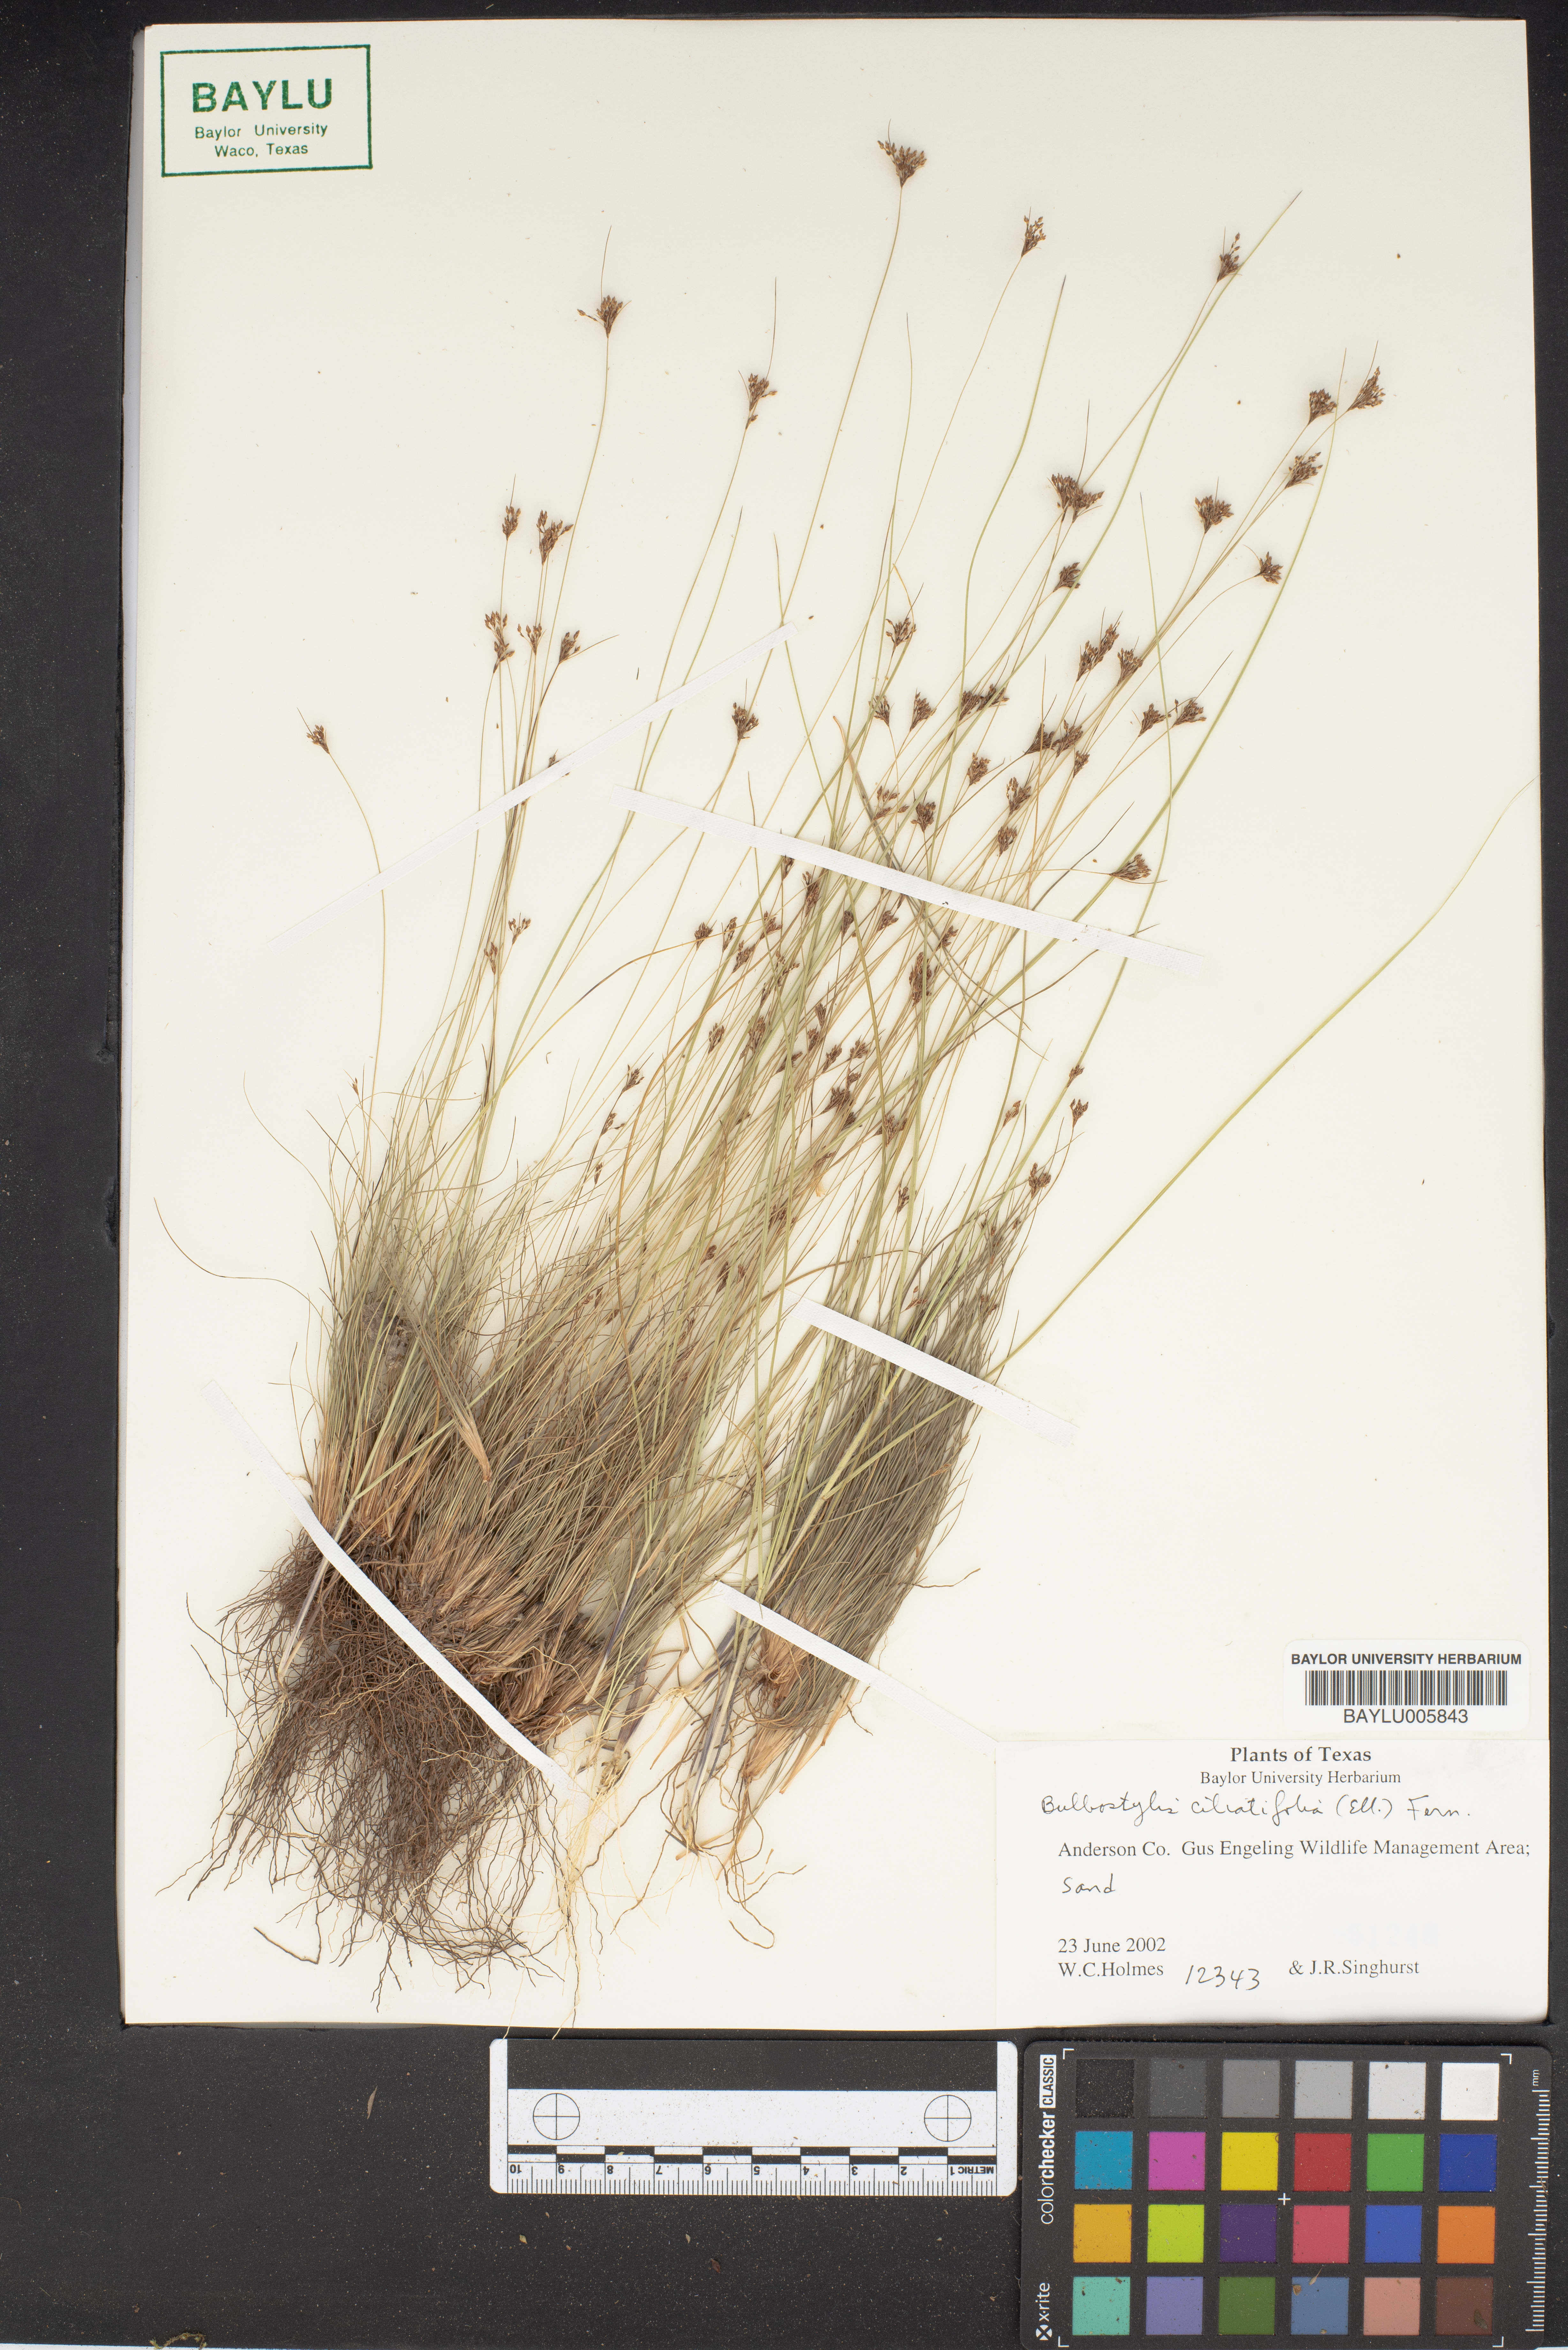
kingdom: Plantae
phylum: Tracheophyta
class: Liliopsida
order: Poales
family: Cyperaceae
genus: Bulbostylis
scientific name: Bulbostylis ciliatifolia
